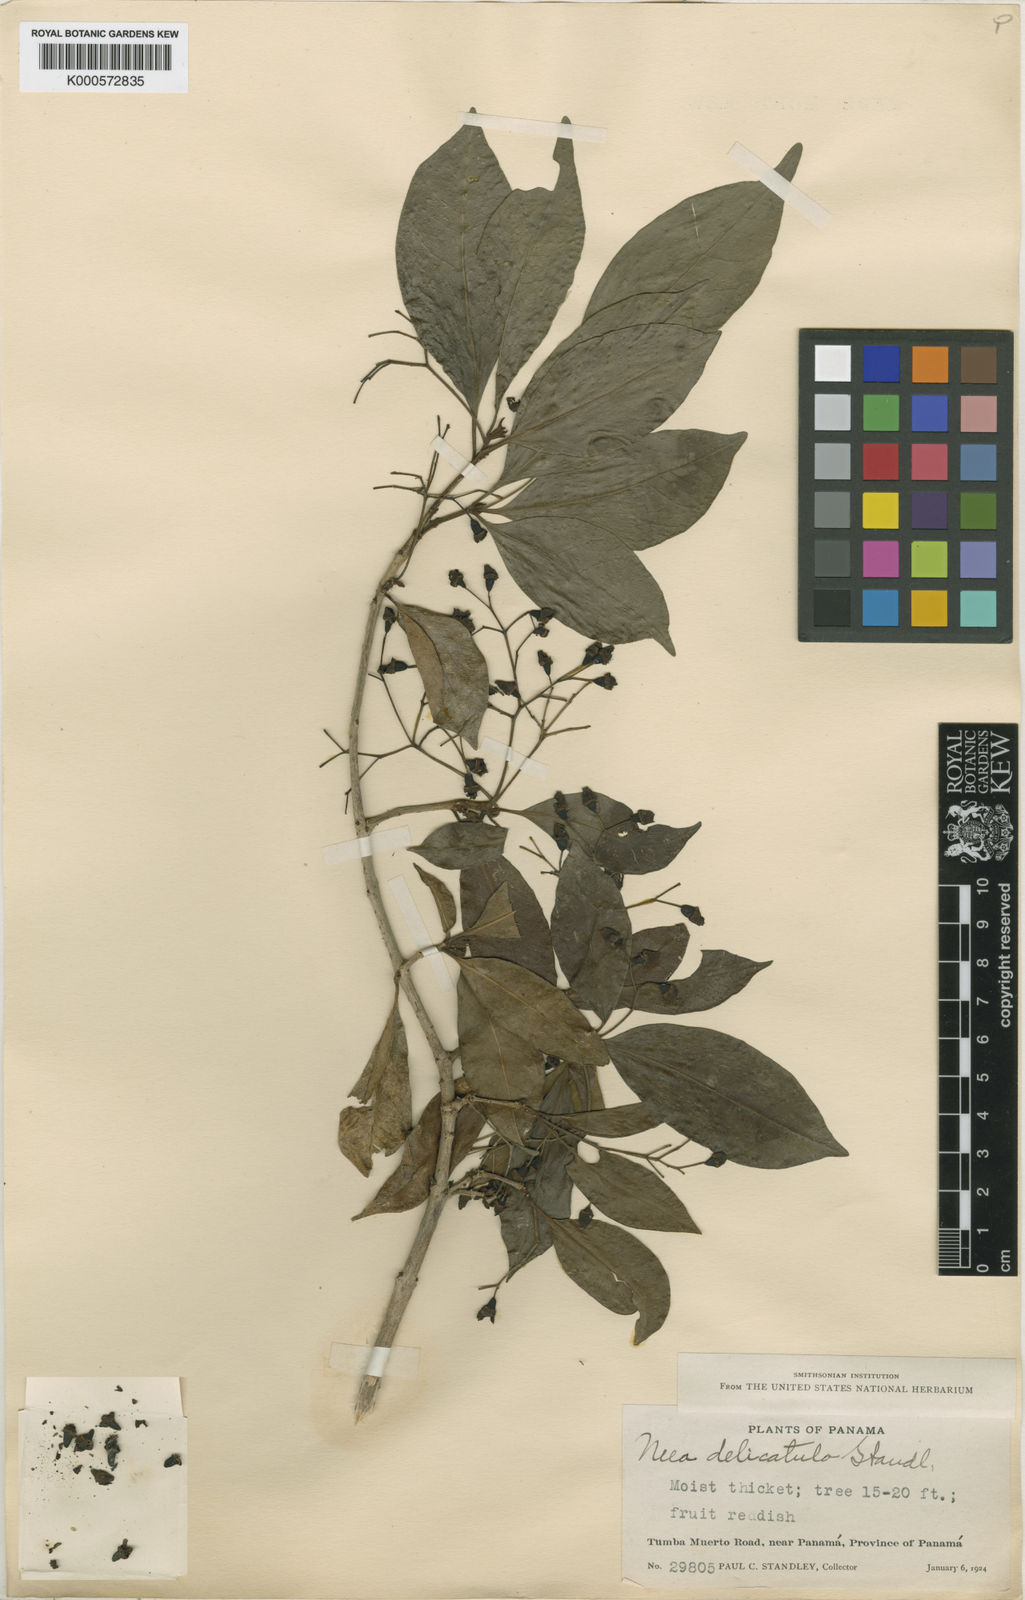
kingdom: Plantae
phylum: Tracheophyta
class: Magnoliopsida
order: Caryophyllales
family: Nyctaginaceae
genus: Neea
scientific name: Neea delicatula
